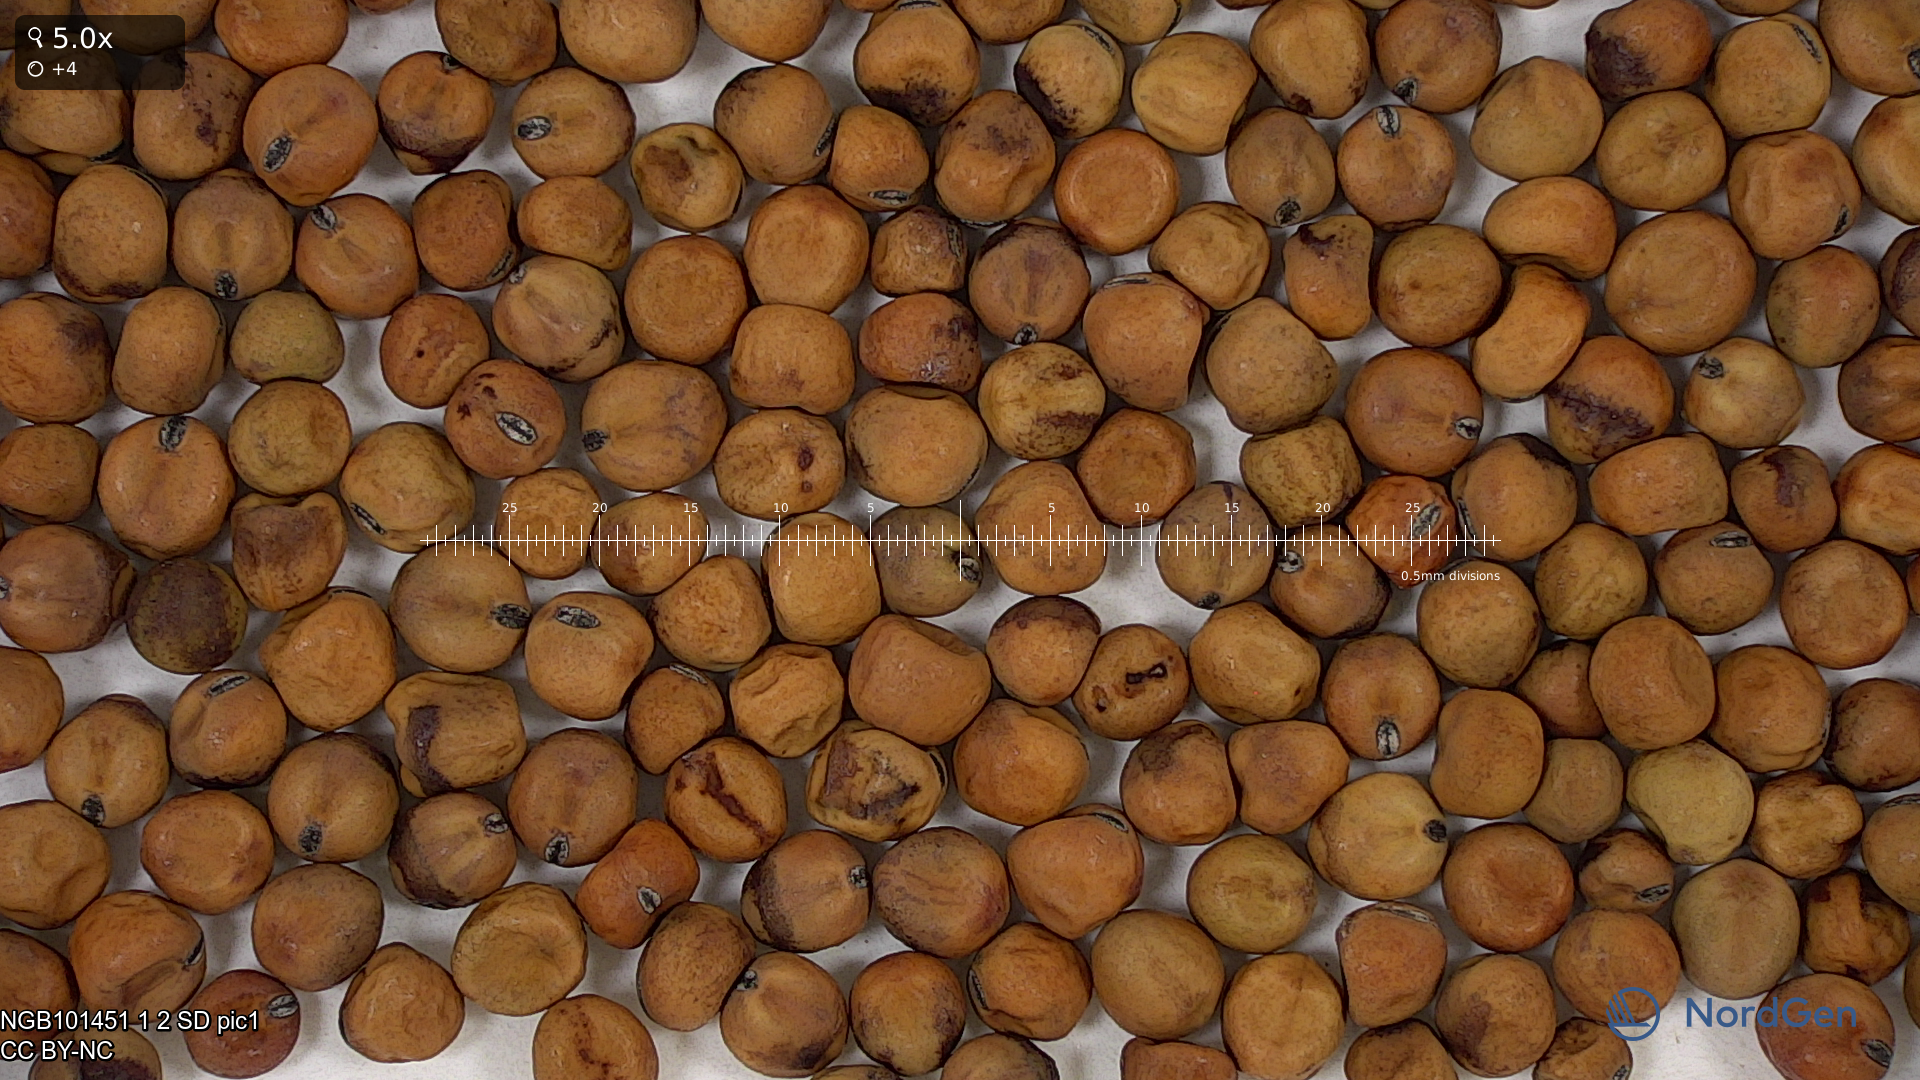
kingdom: Plantae
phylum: Tracheophyta
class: Magnoliopsida
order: Fabales
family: Fabaceae
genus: Lathyrus
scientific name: Lathyrus oleraceus
